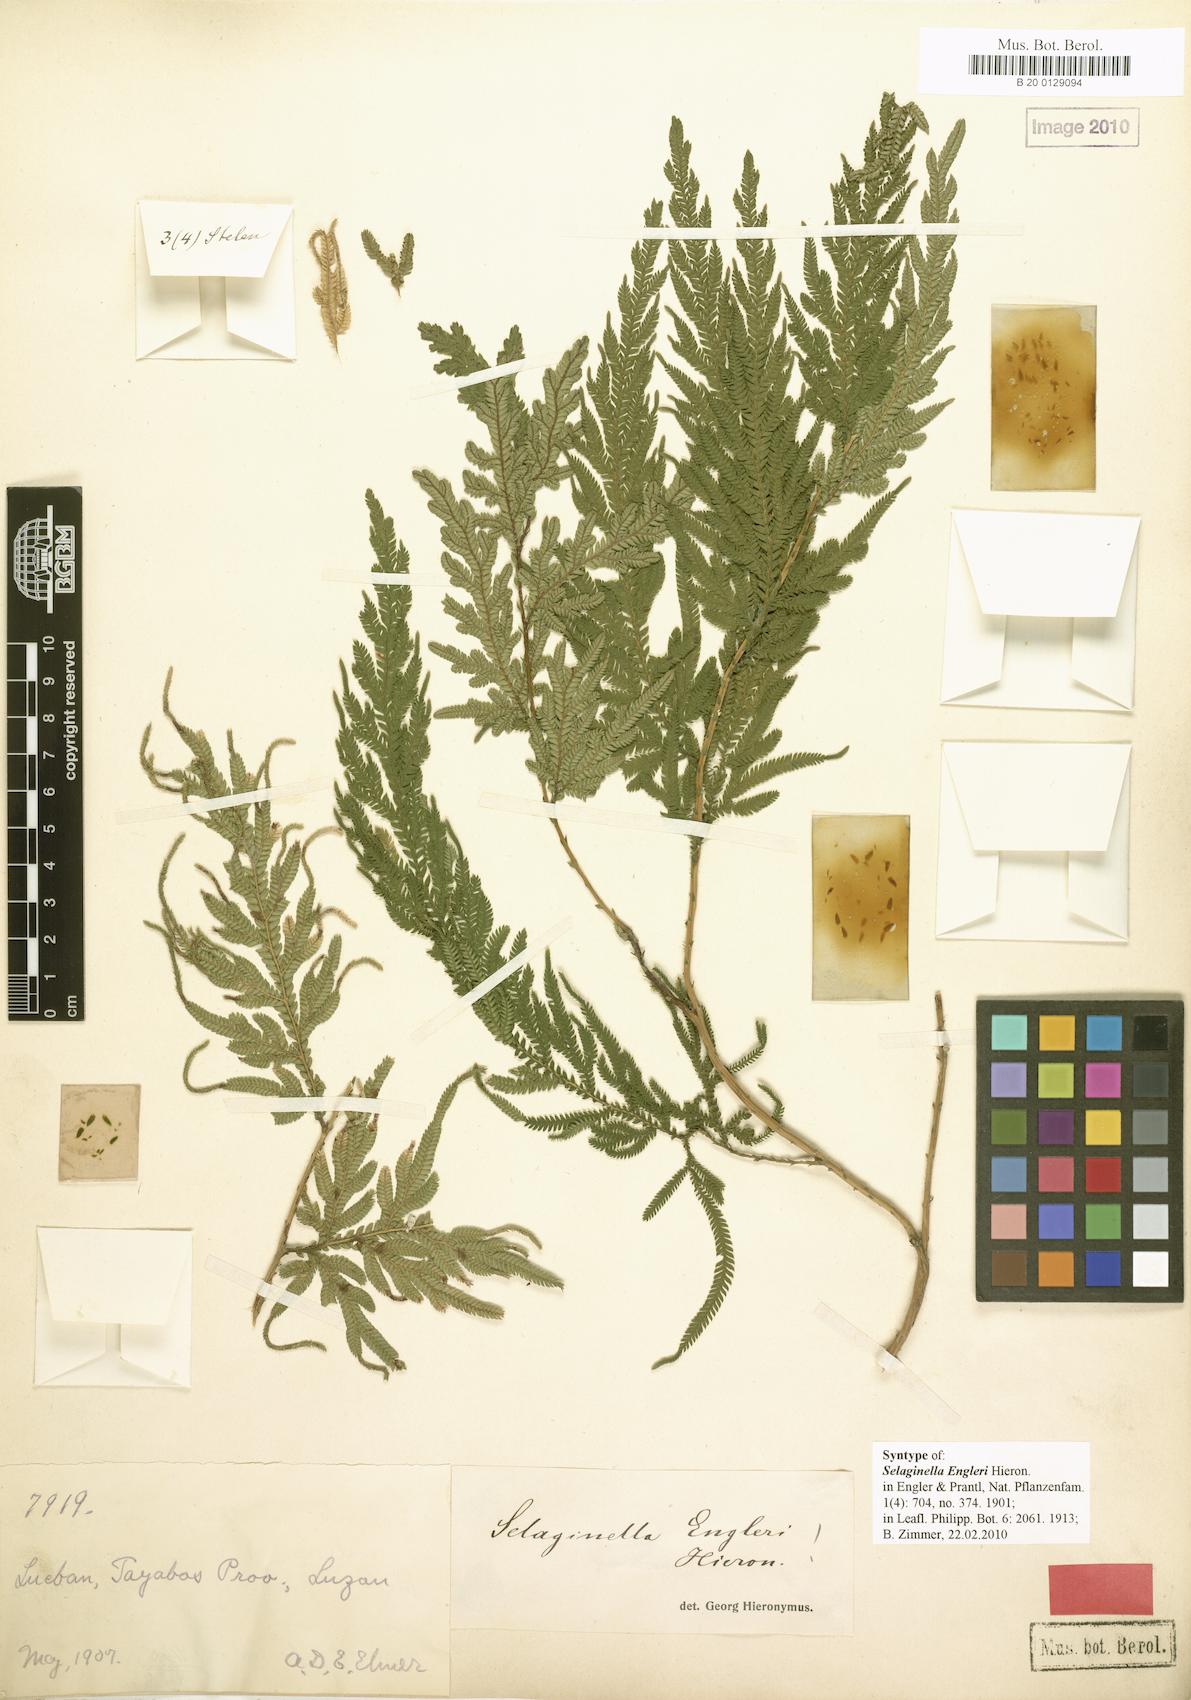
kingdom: Plantae
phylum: Tracheophyta
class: Lycopodiopsida
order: Selaginellales
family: Selaginellaceae
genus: Selaginella
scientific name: Selaginella engleri
